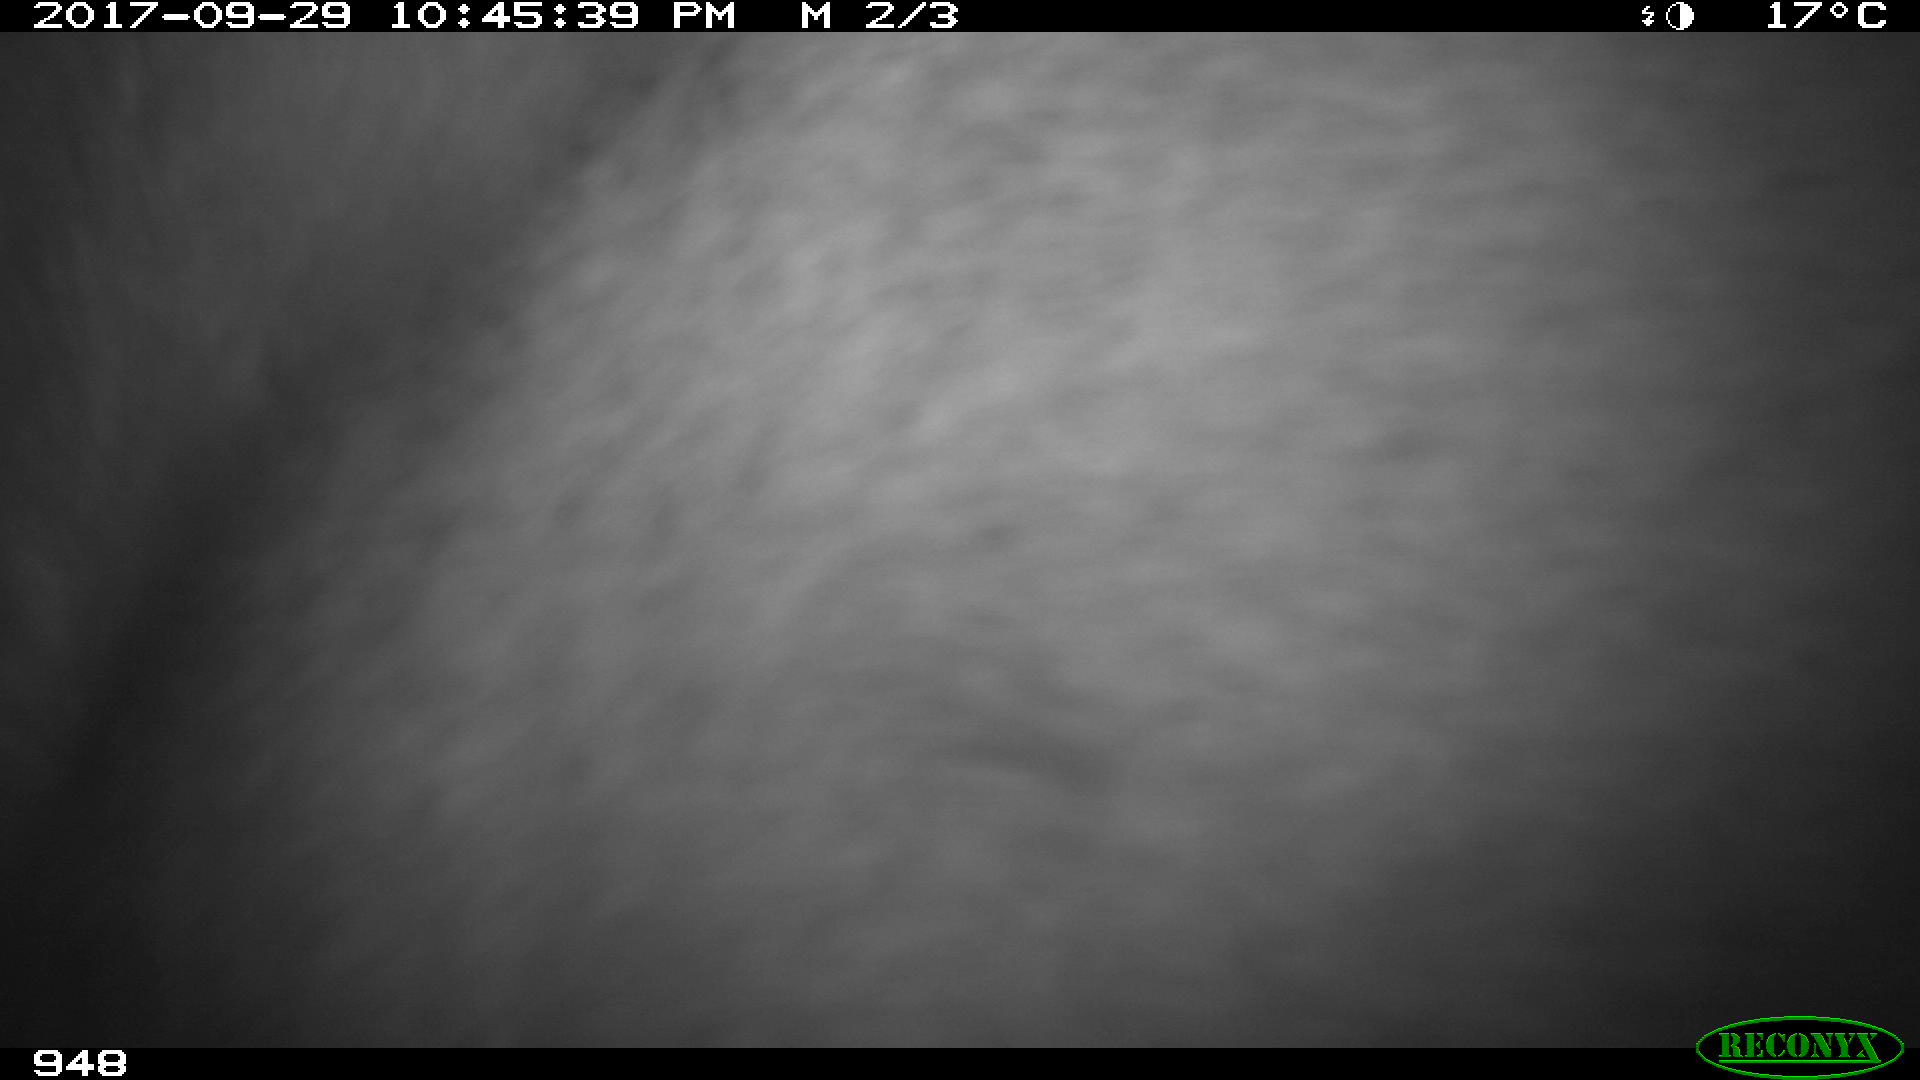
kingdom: Animalia
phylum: Chordata
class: Mammalia
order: Perissodactyla
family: Equidae
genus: Equus
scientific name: Equus caballus
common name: Horse
